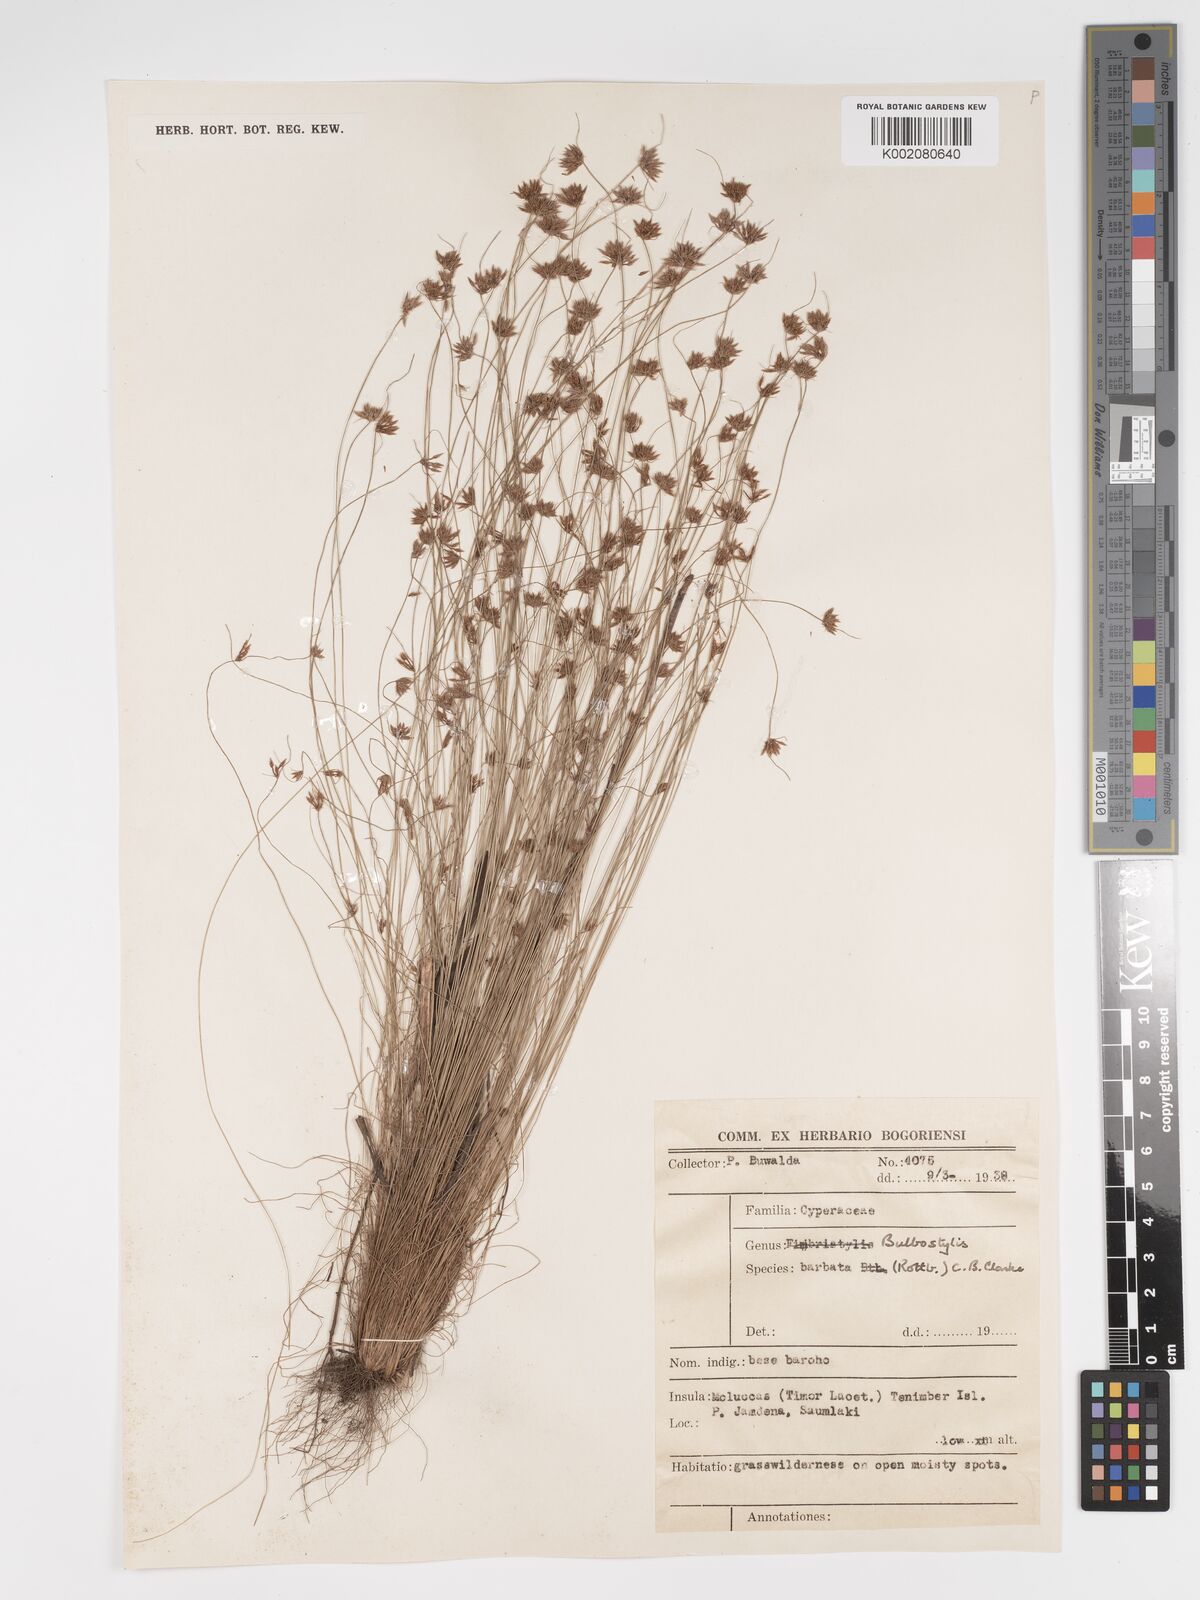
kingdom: Plantae
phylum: Tracheophyta
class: Liliopsida
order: Poales
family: Cyperaceae
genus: Bulbostylis
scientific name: Bulbostylis barbata
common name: Watergrass
